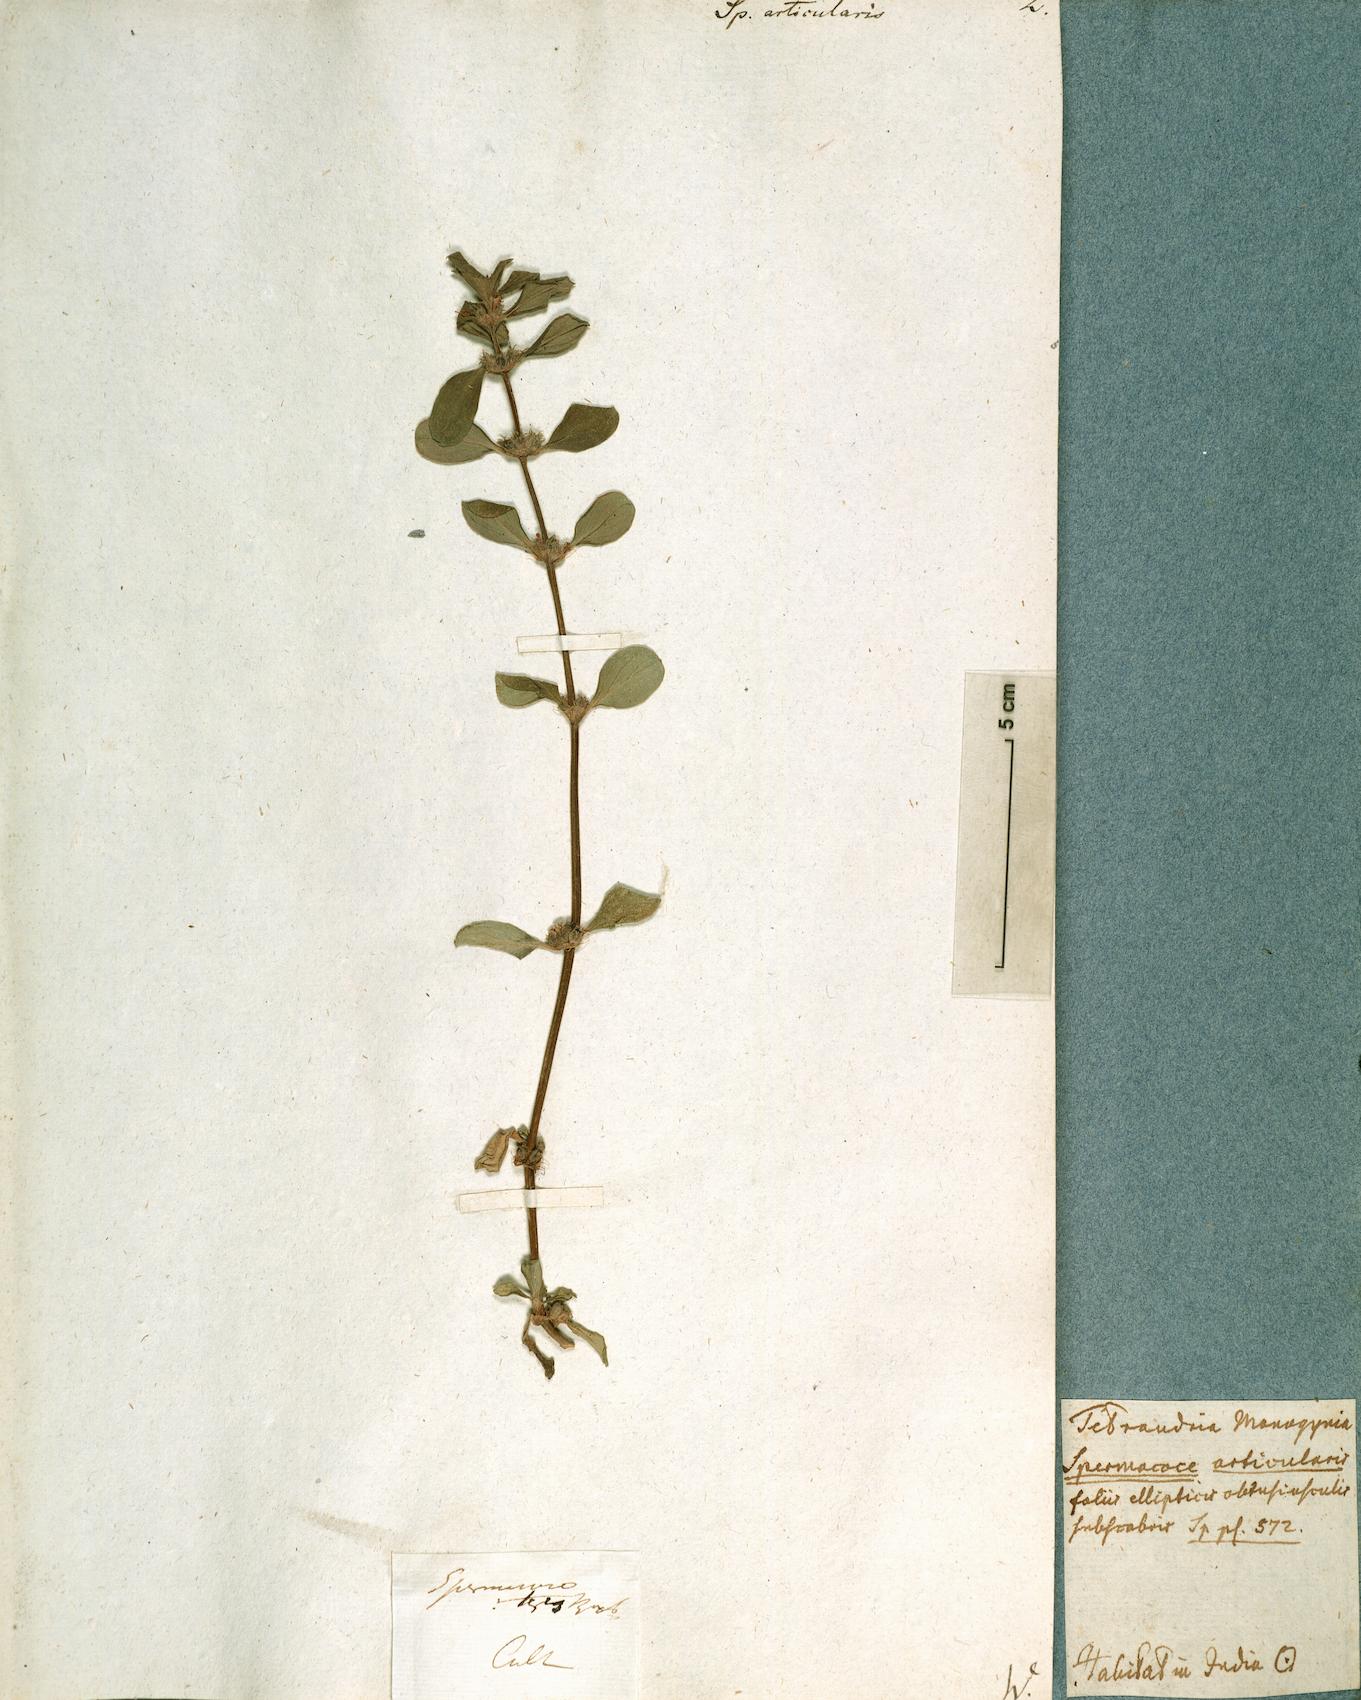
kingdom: Plantae
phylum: Tracheophyta
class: Magnoliopsida
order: Gentianales
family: Rubiaceae
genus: Spermacoce
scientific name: Spermacoce articularis
